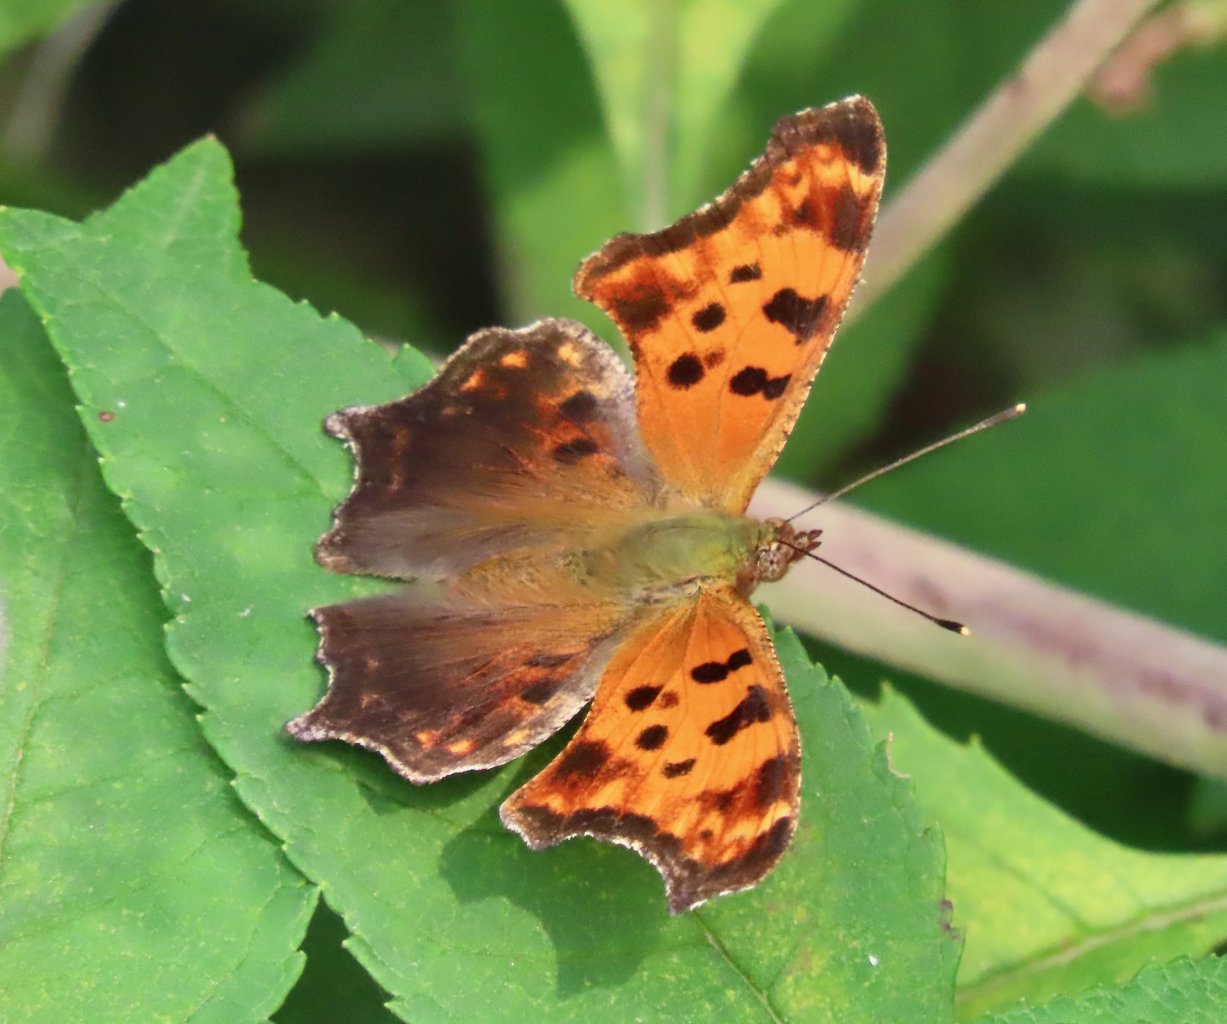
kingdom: Animalia
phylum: Arthropoda
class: Insecta
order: Lepidoptera
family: Nymphalidae
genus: Polygonia
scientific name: Polygonia comma
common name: Eastern Comma
